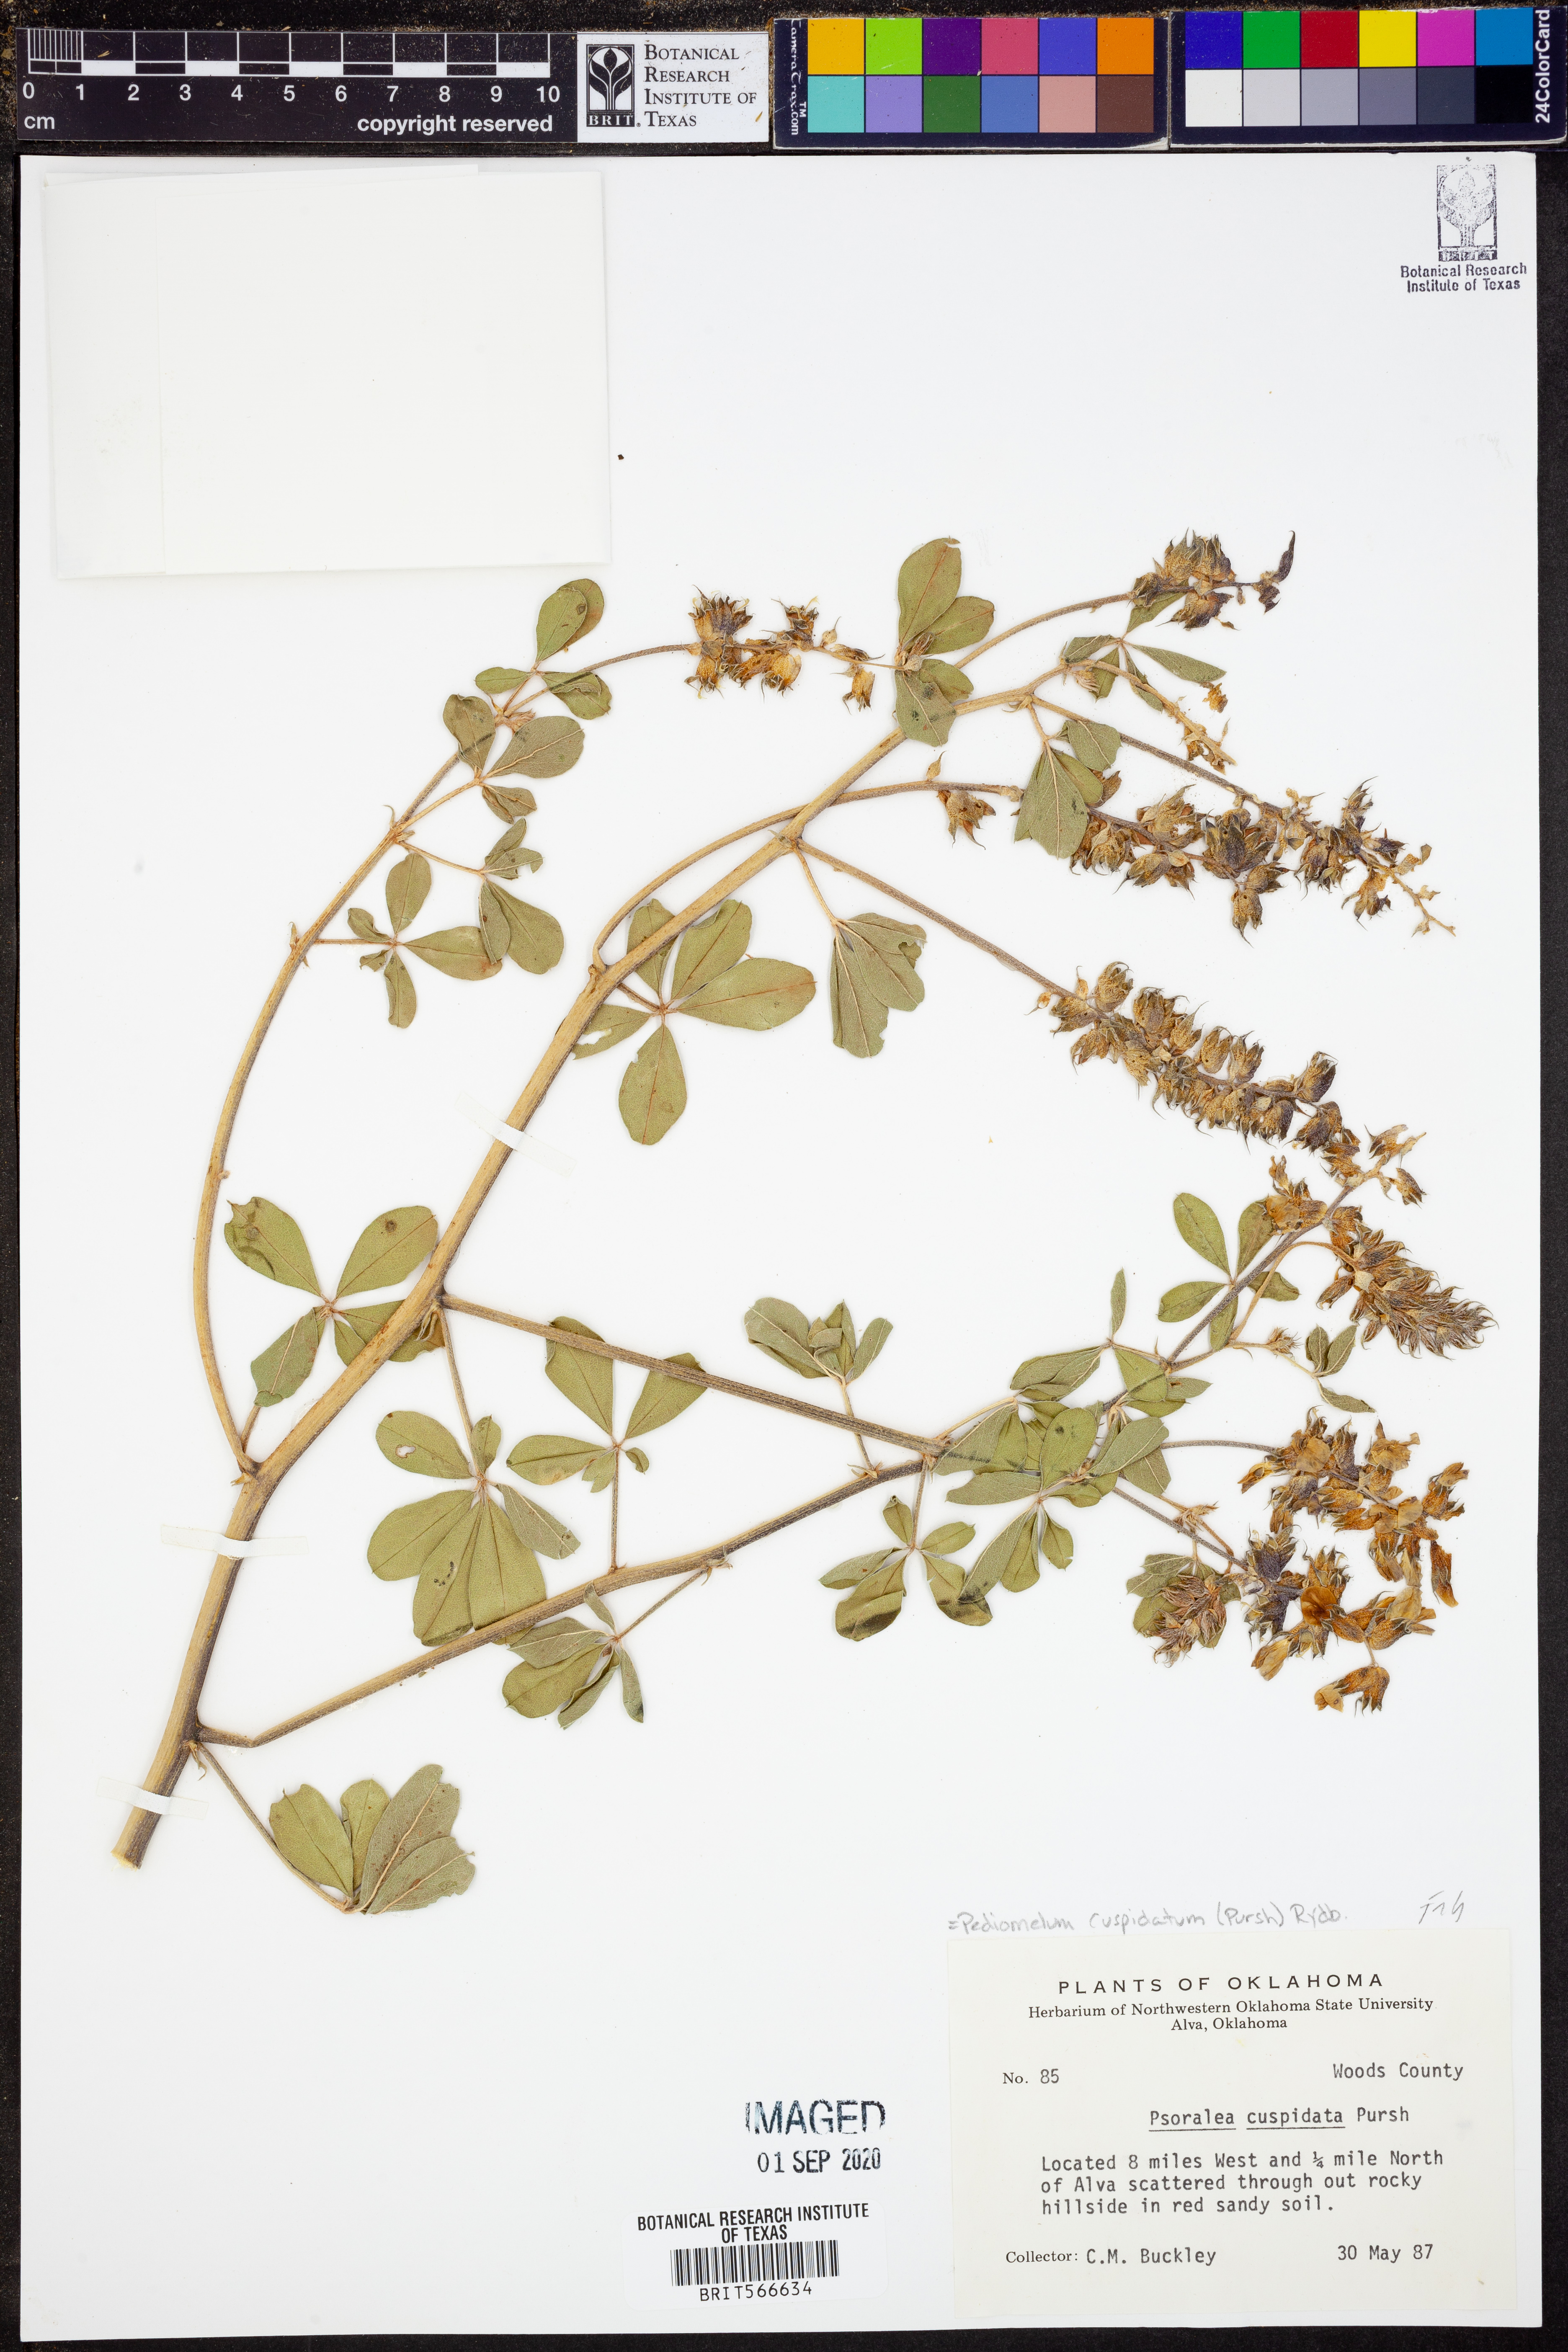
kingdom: Plantae
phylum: Tracheophyta
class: Magnoliopsida
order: Fabales
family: Fabaceae
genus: Pediomelum
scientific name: Pediomelum cuspidatum
